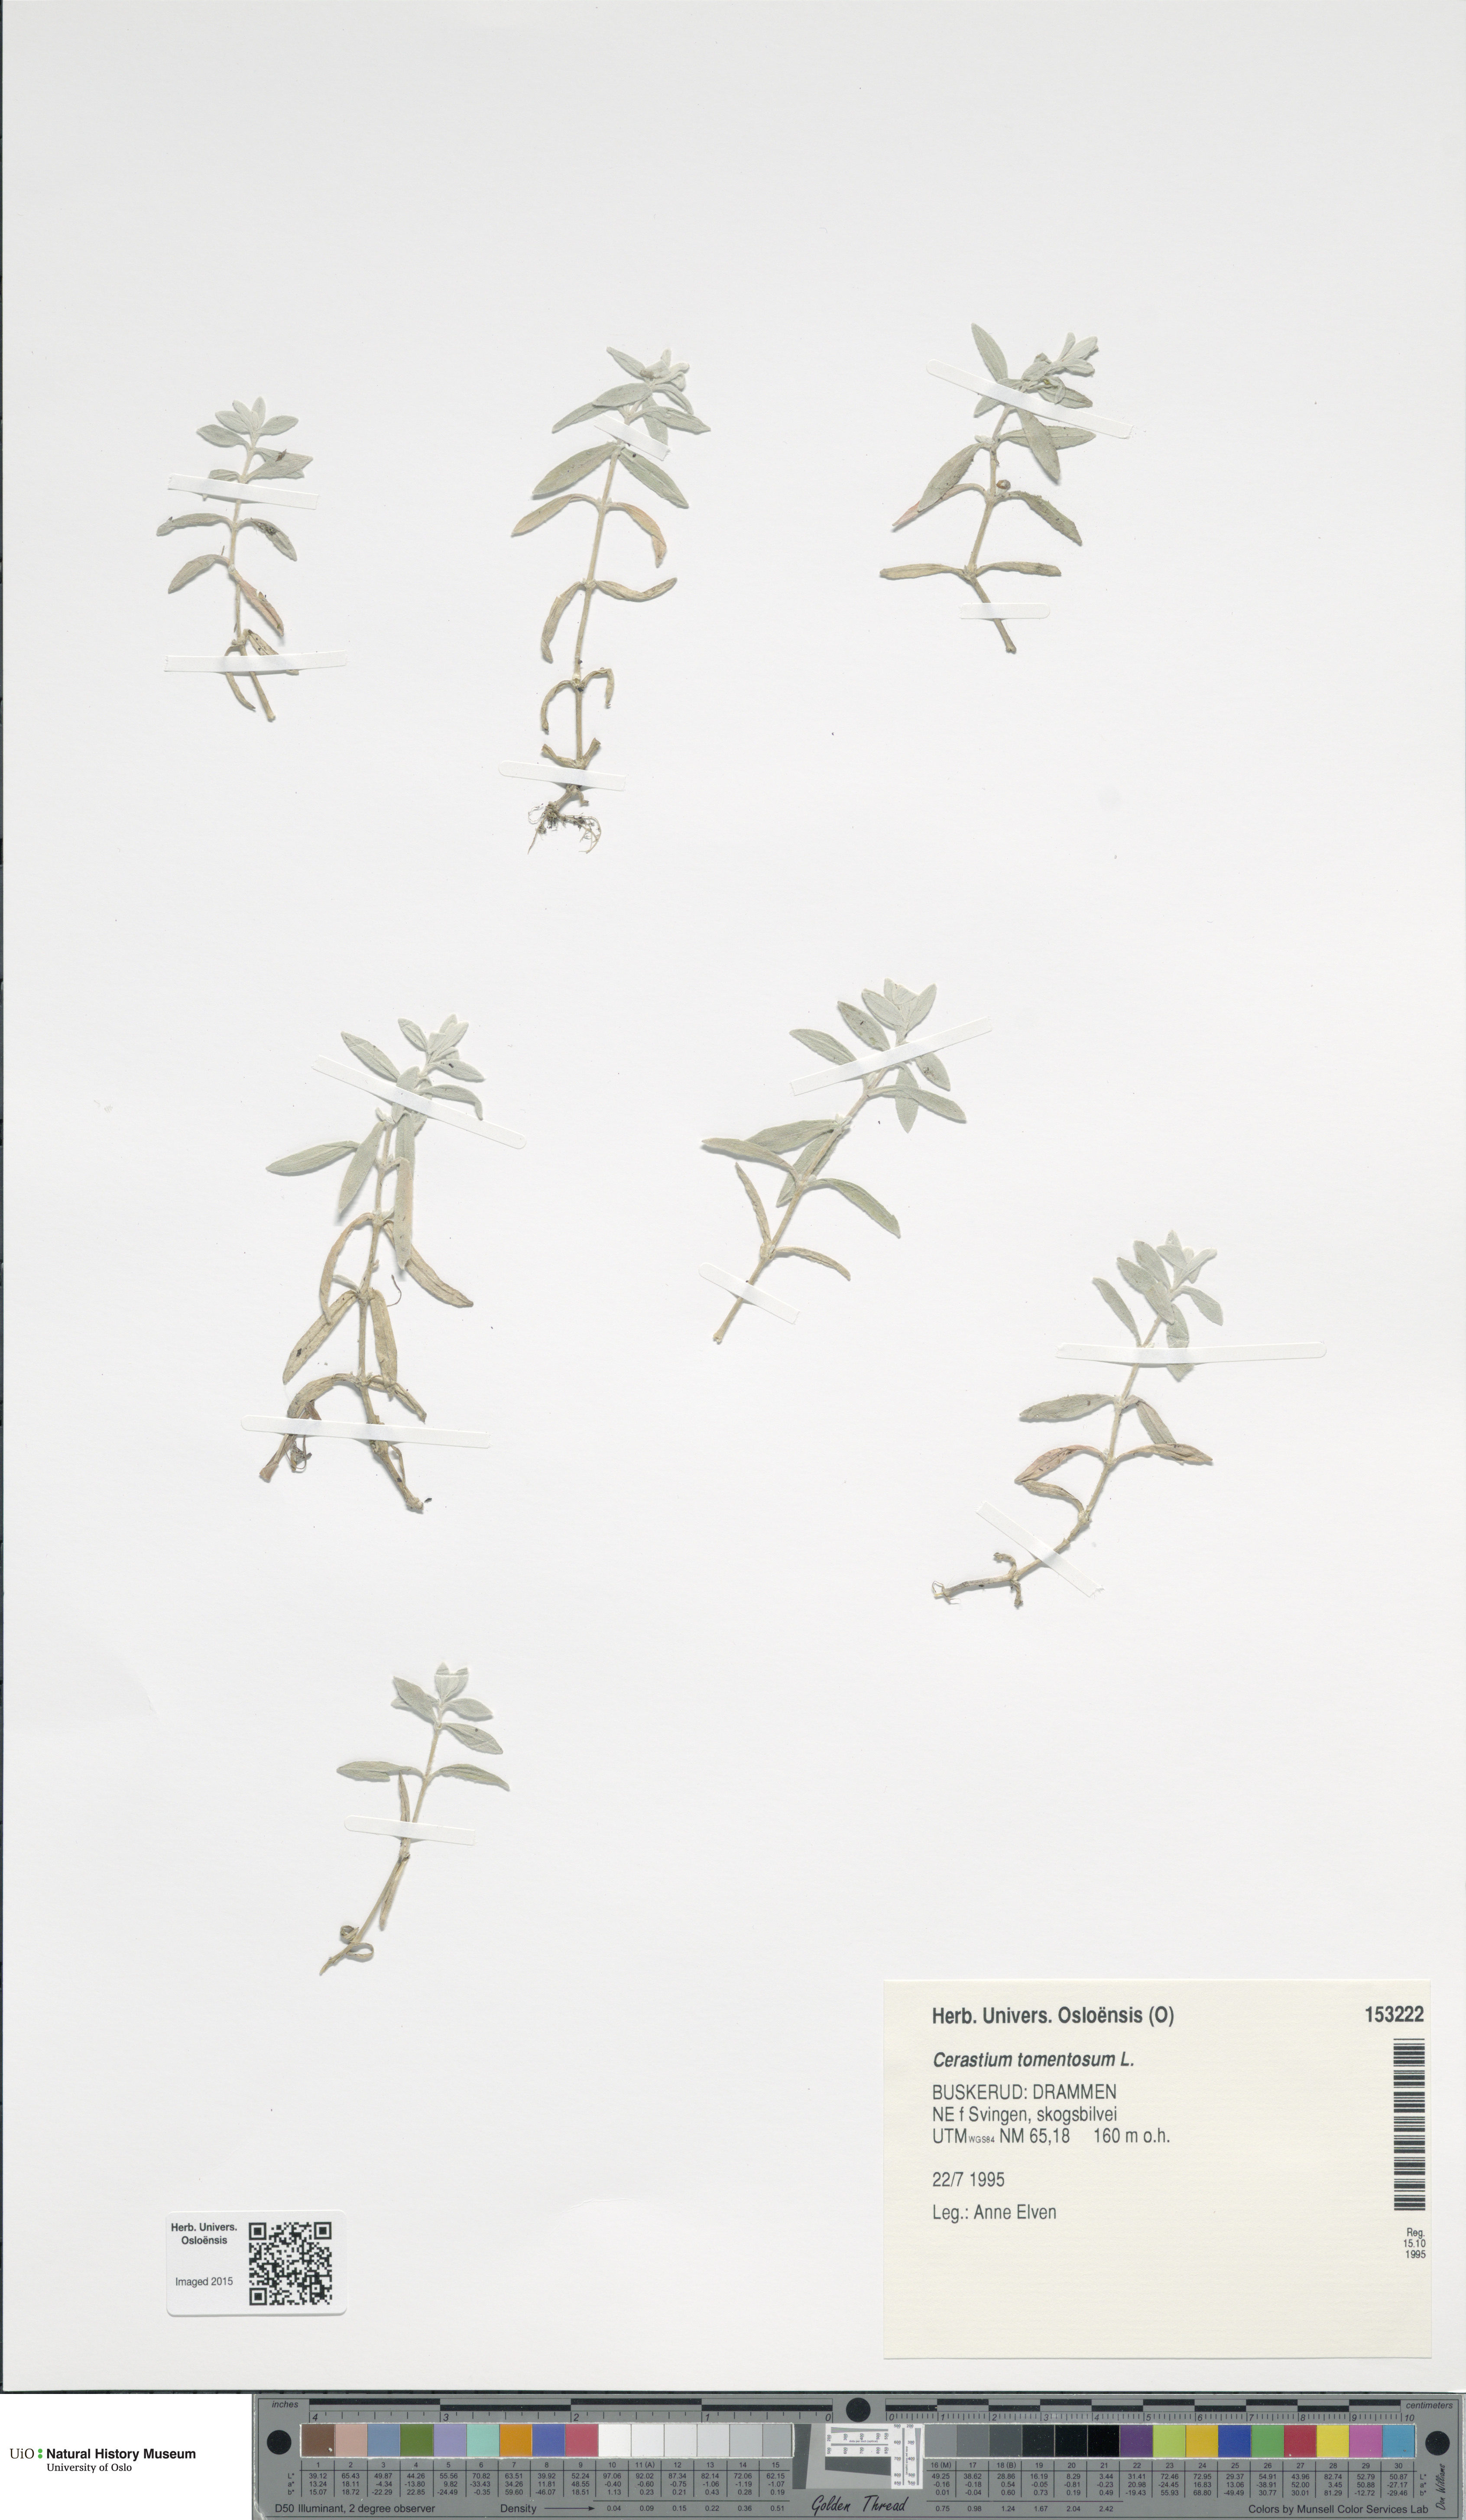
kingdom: Plantae
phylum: Tracheophyta
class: Magnoliopsida
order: Caryophyllales
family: Caryophyllaceae
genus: Cerastium
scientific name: Cerastium tomentosum
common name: Snow-in-summer
